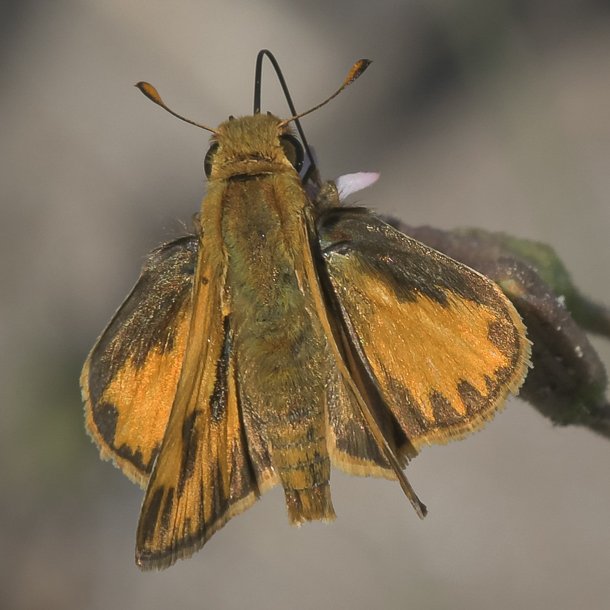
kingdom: Animalia
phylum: Arthropoda
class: Insecta
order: Lepidoptera
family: Hesperiidae
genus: Hylephila
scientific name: Hylephila phyleus
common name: Fiery Skipper
